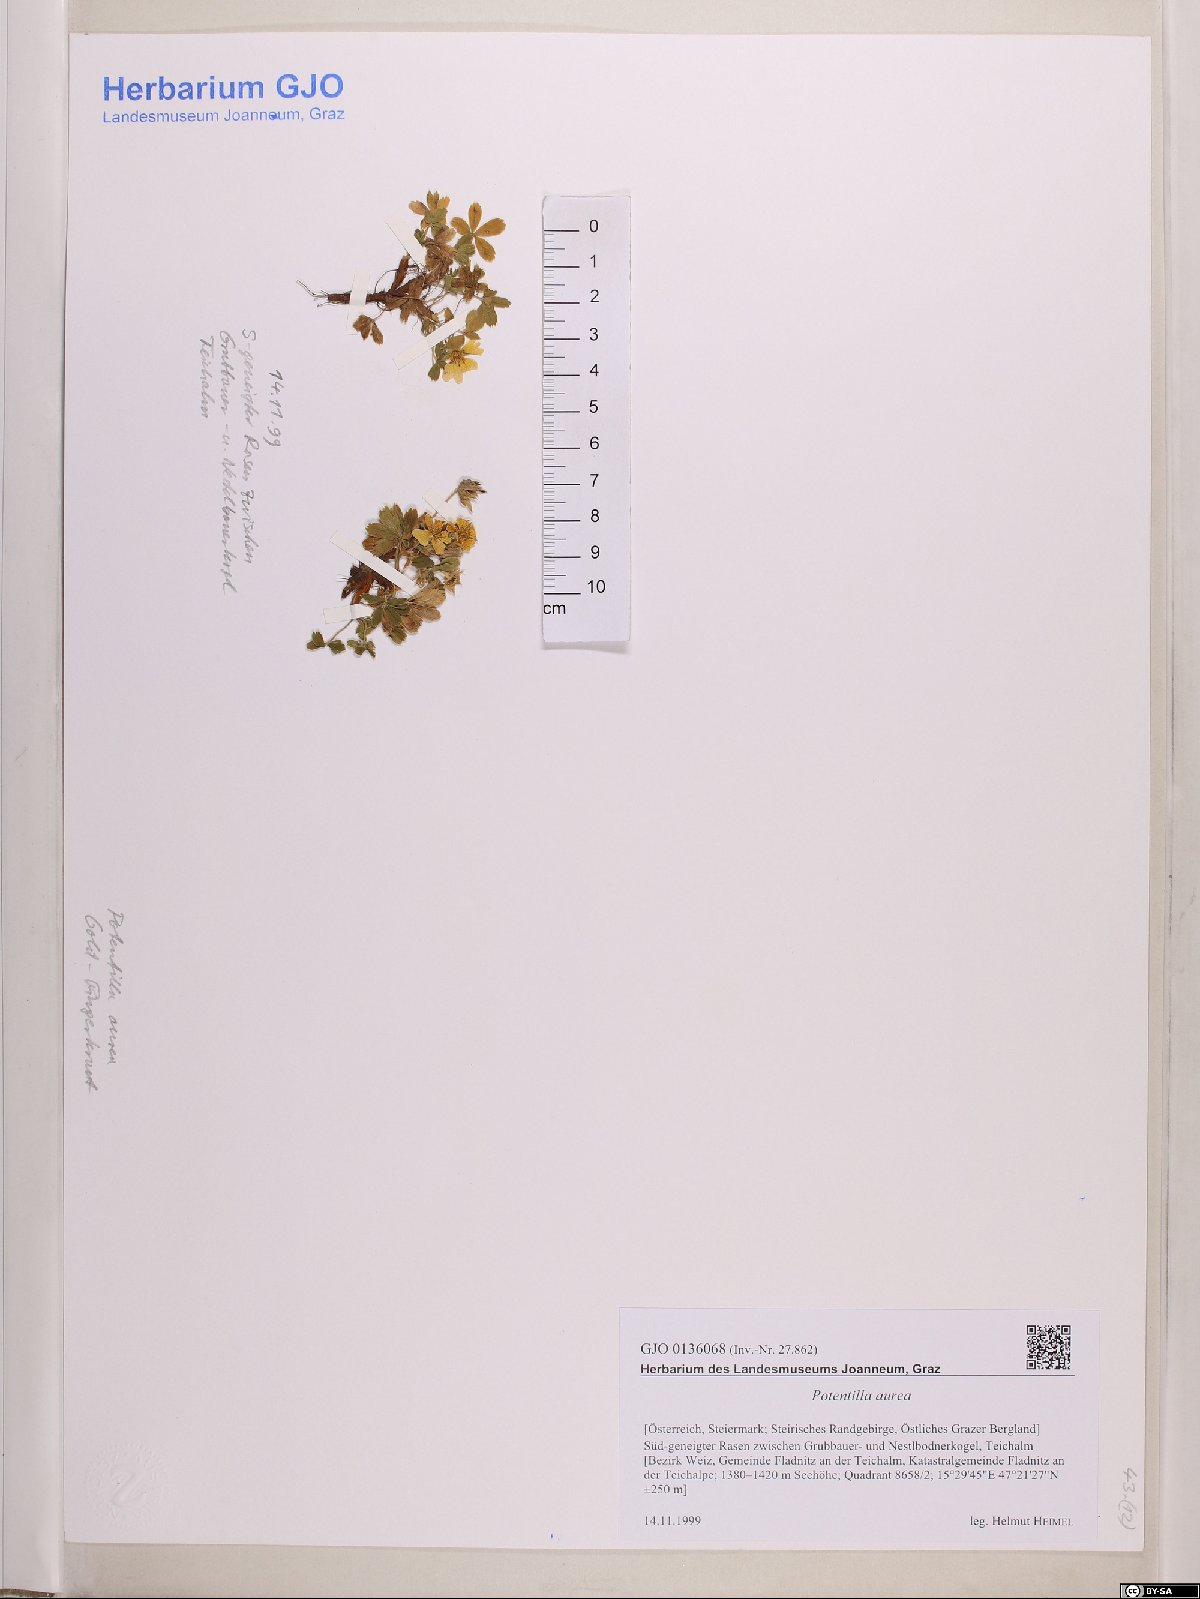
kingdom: Plantae
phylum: Tracheophyta
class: Magnoliopsida
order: Rosales
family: Rosaceae
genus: Potentilla
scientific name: Potentilla aurea
